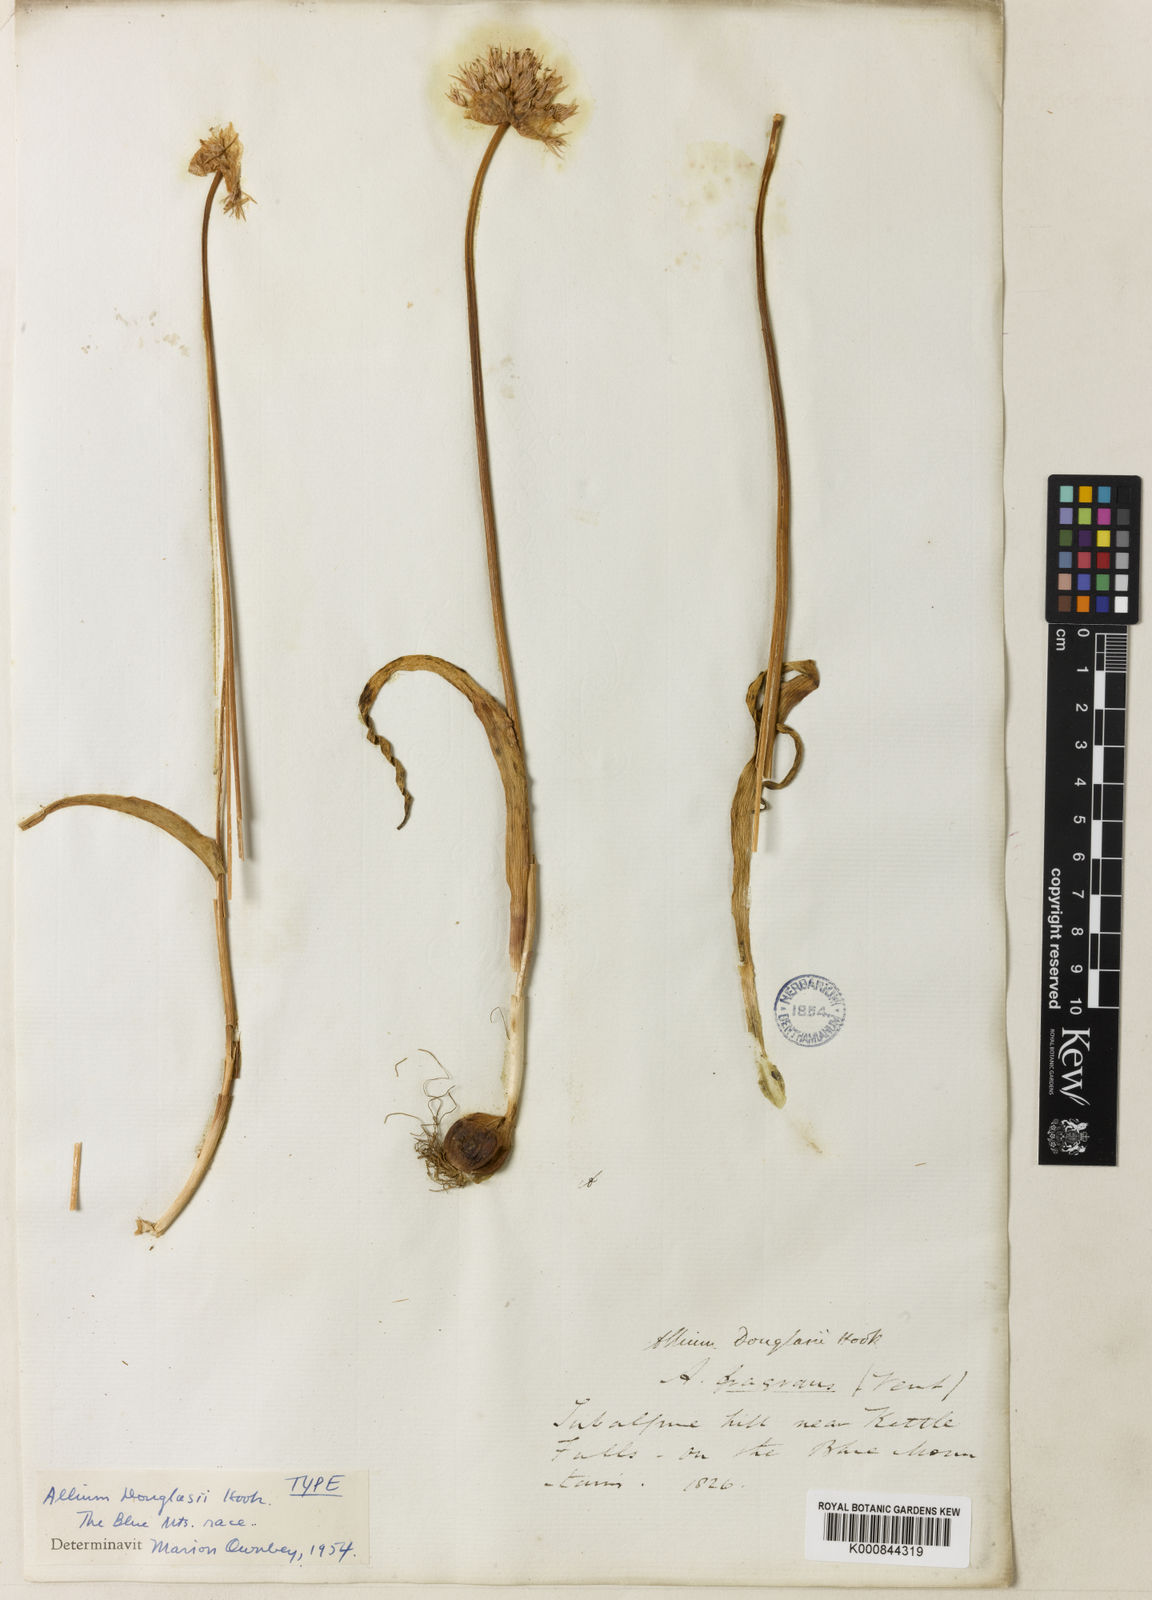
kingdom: Plantae
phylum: Tracheophyta
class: Liliopsida
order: Asparagales
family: Amaryllidaceae
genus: Allium
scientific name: Allium douglasii
